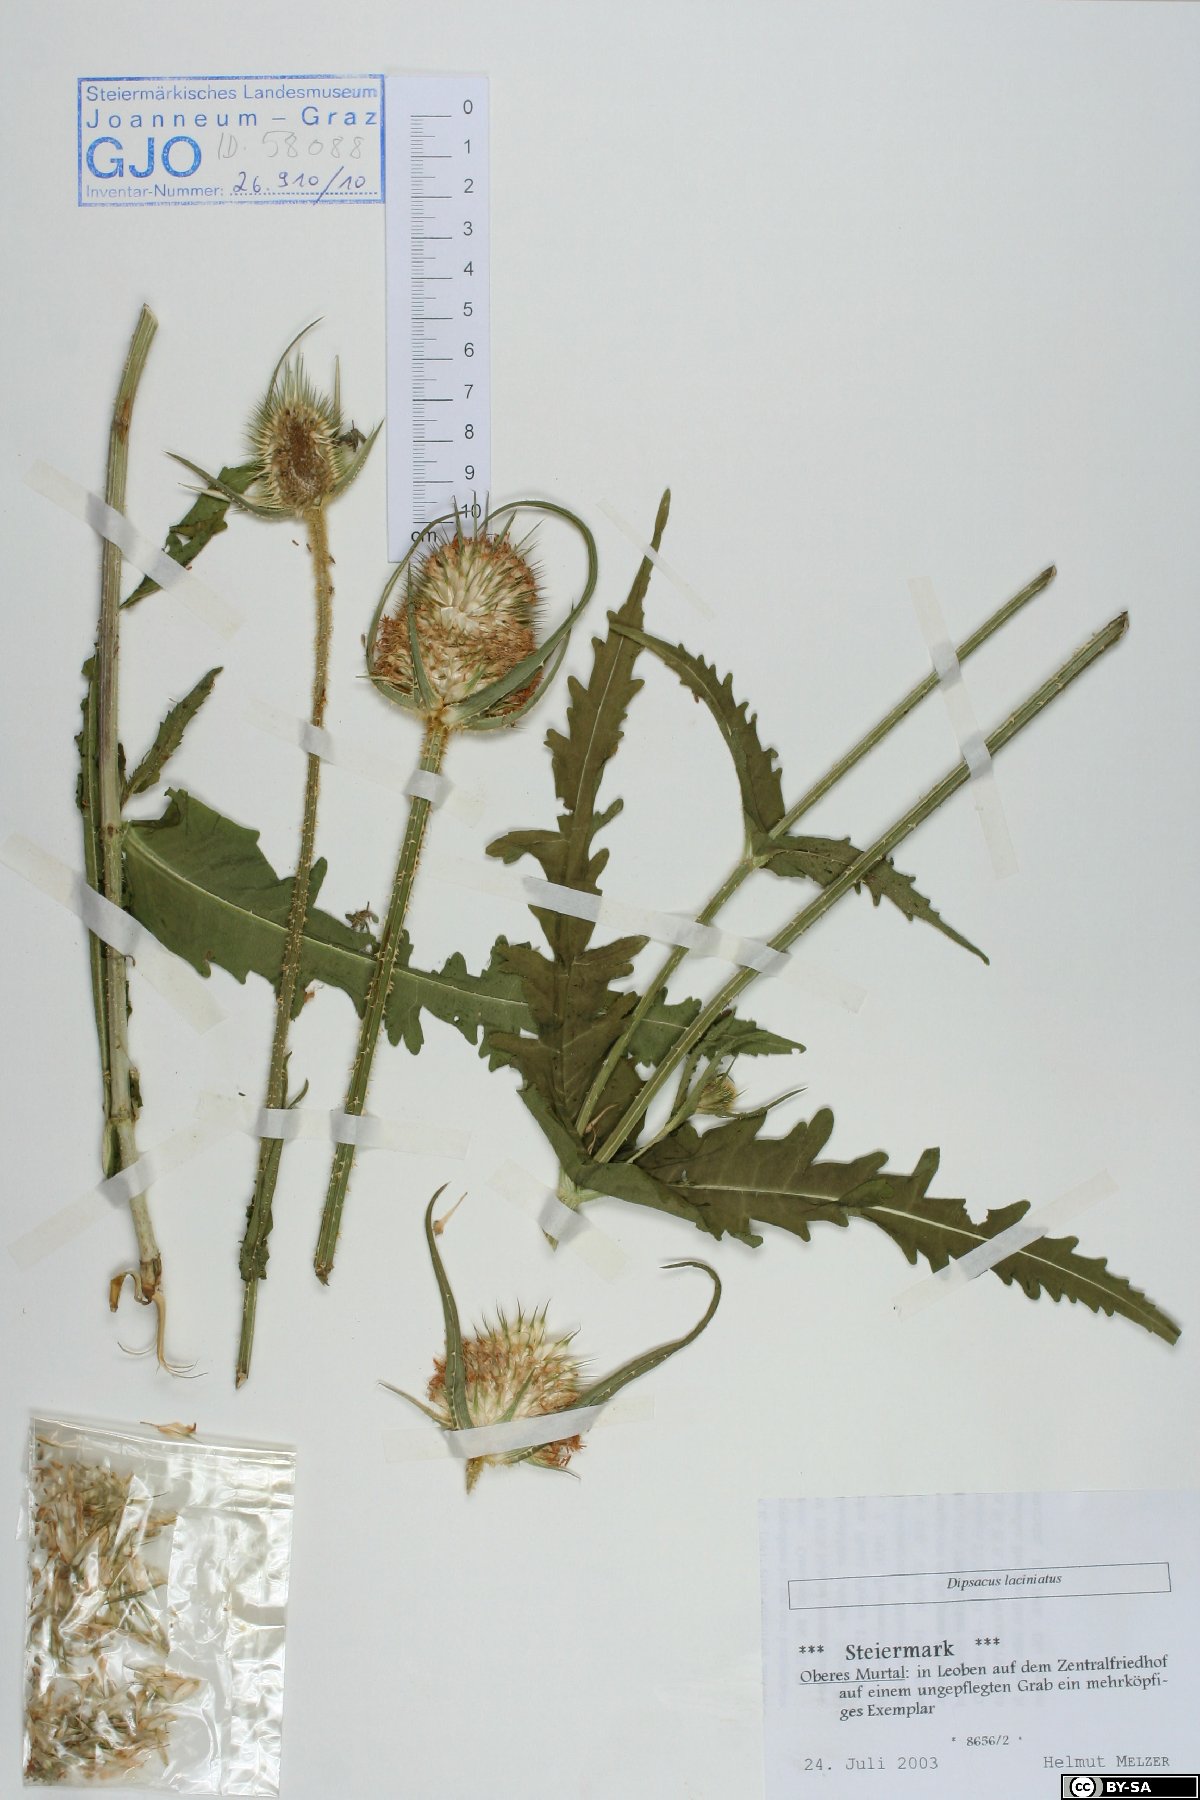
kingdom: Plantae
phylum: Tracheophyta
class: Magnoliopsida
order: Dipsacales
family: Caprifoliaceae
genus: Dipsacus
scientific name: Dipsacus laciniatus
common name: Cut-leaved teasel
